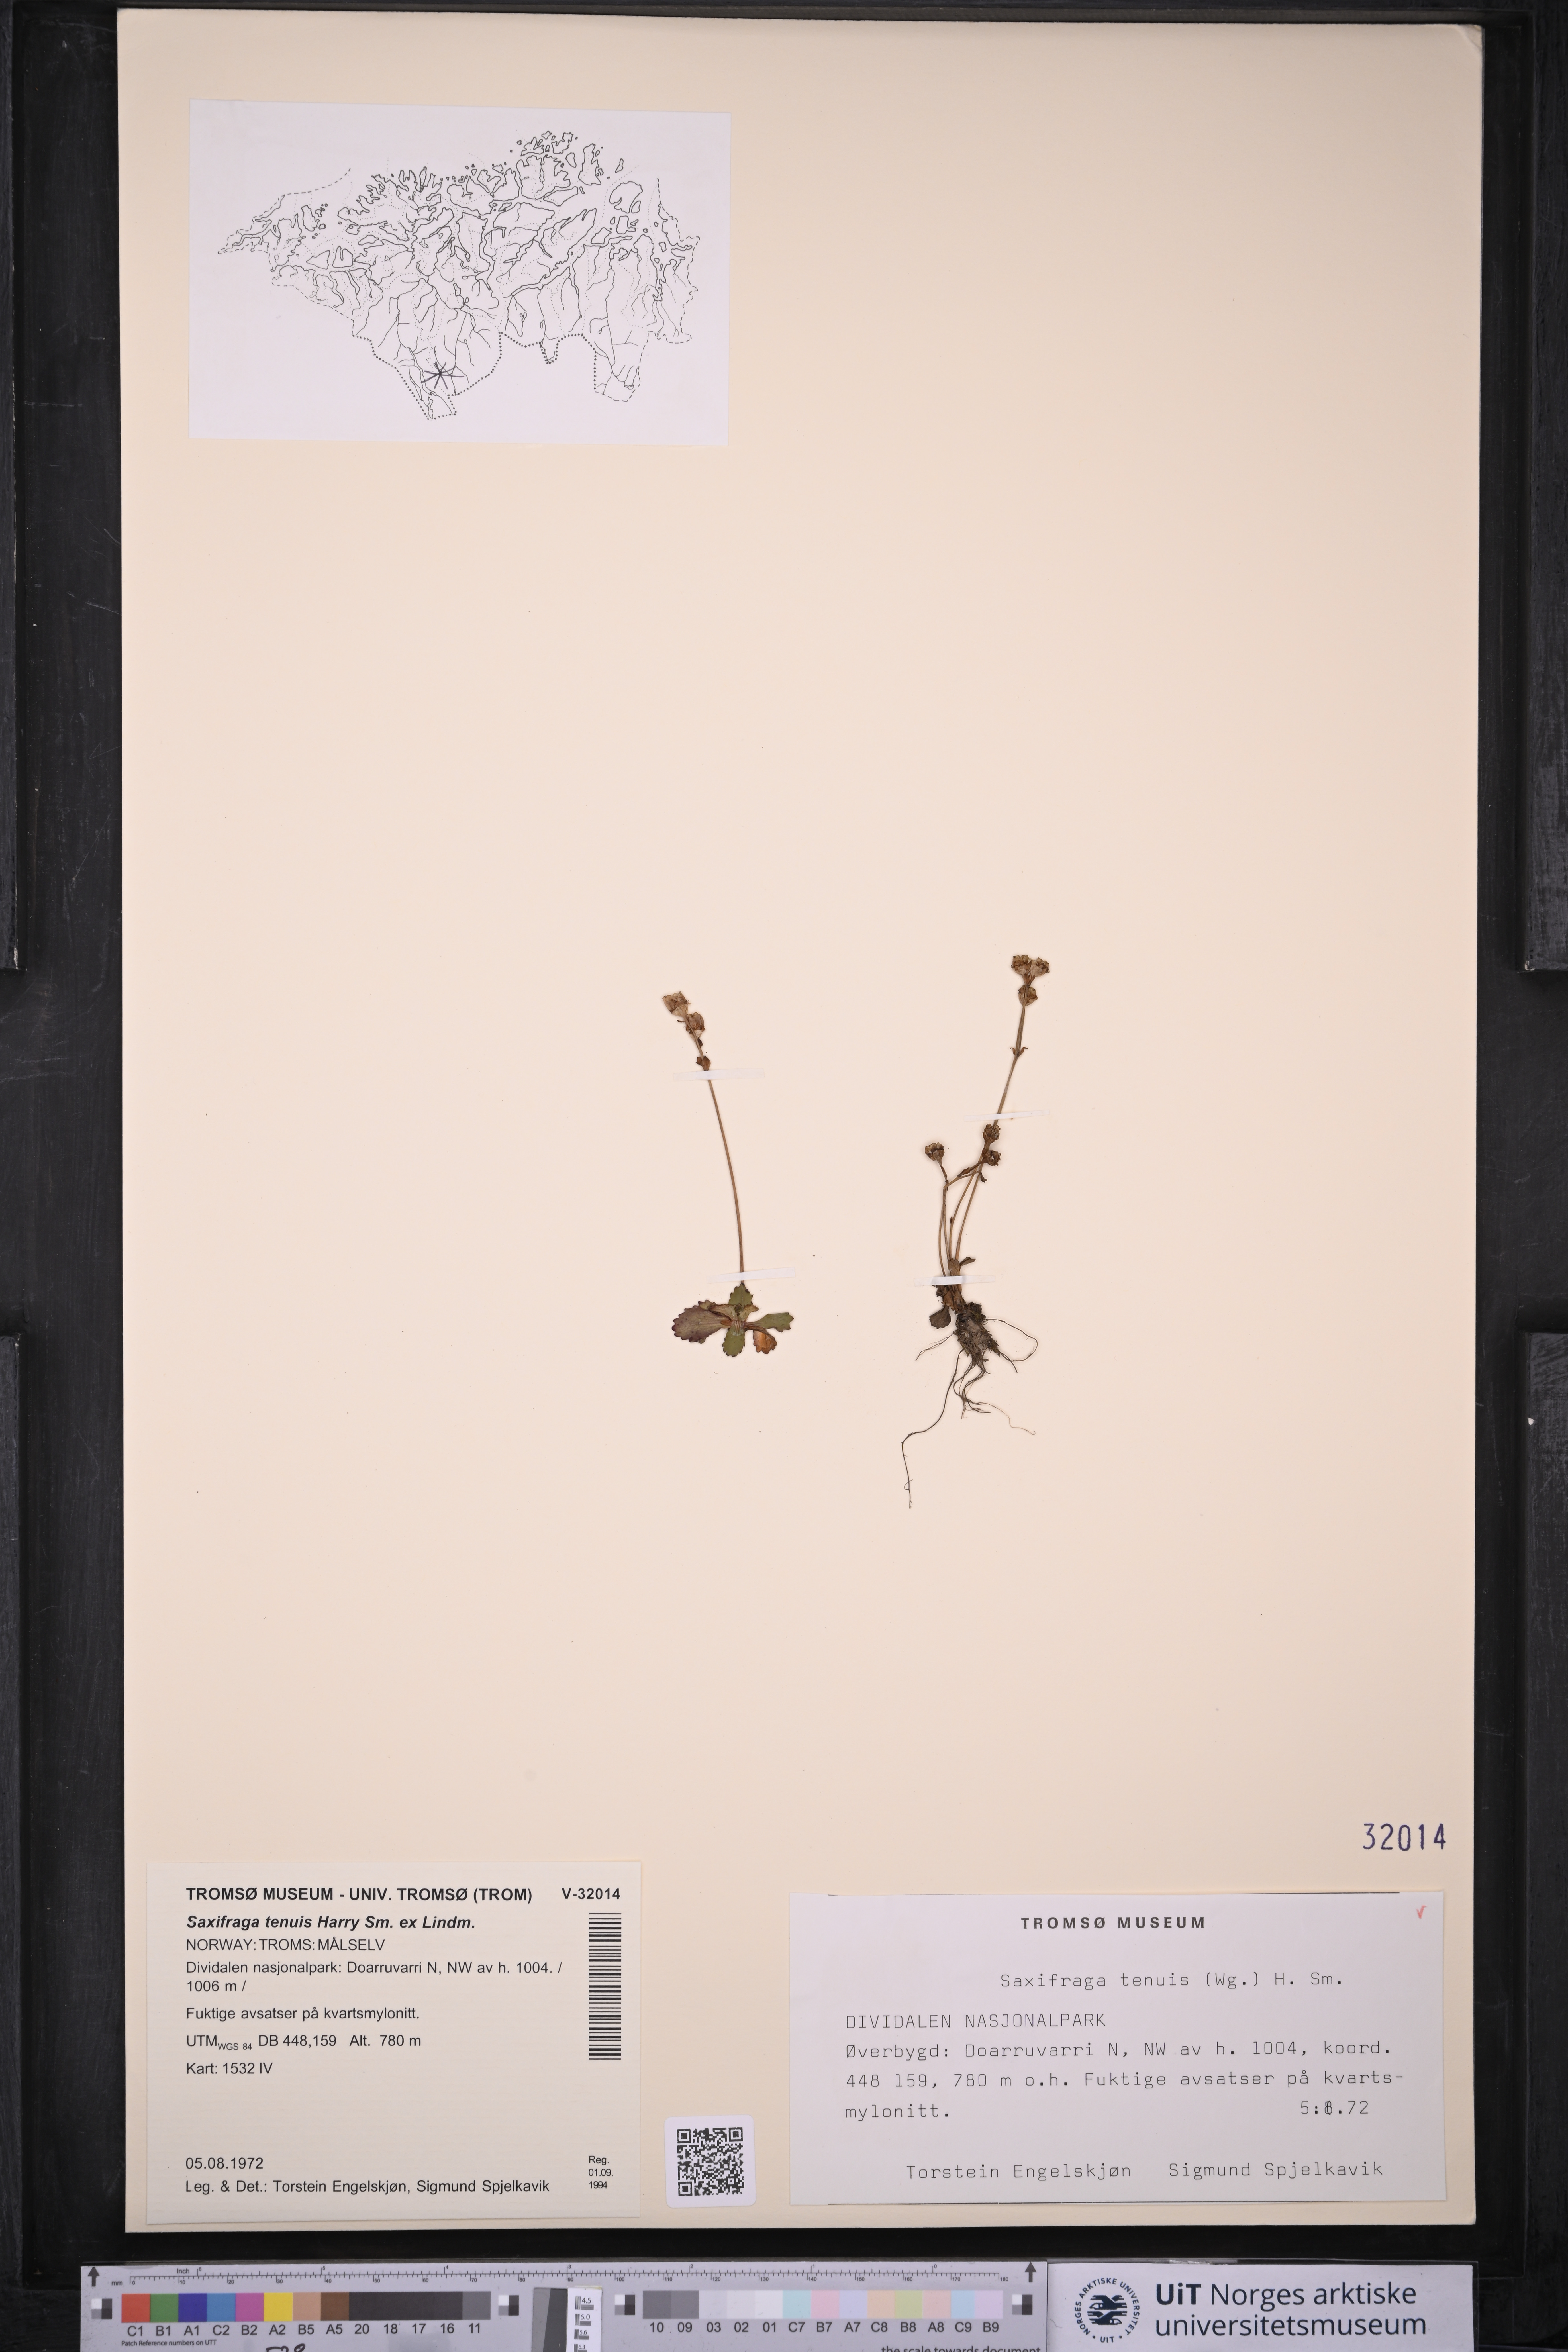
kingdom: Plantae
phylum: Tracheophyta
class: Magnoliopsida
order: Saxifragales
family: Saxifragaceae
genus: Micranthes
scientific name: Micranthes tenuis
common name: Ottertail pass saxifrage
